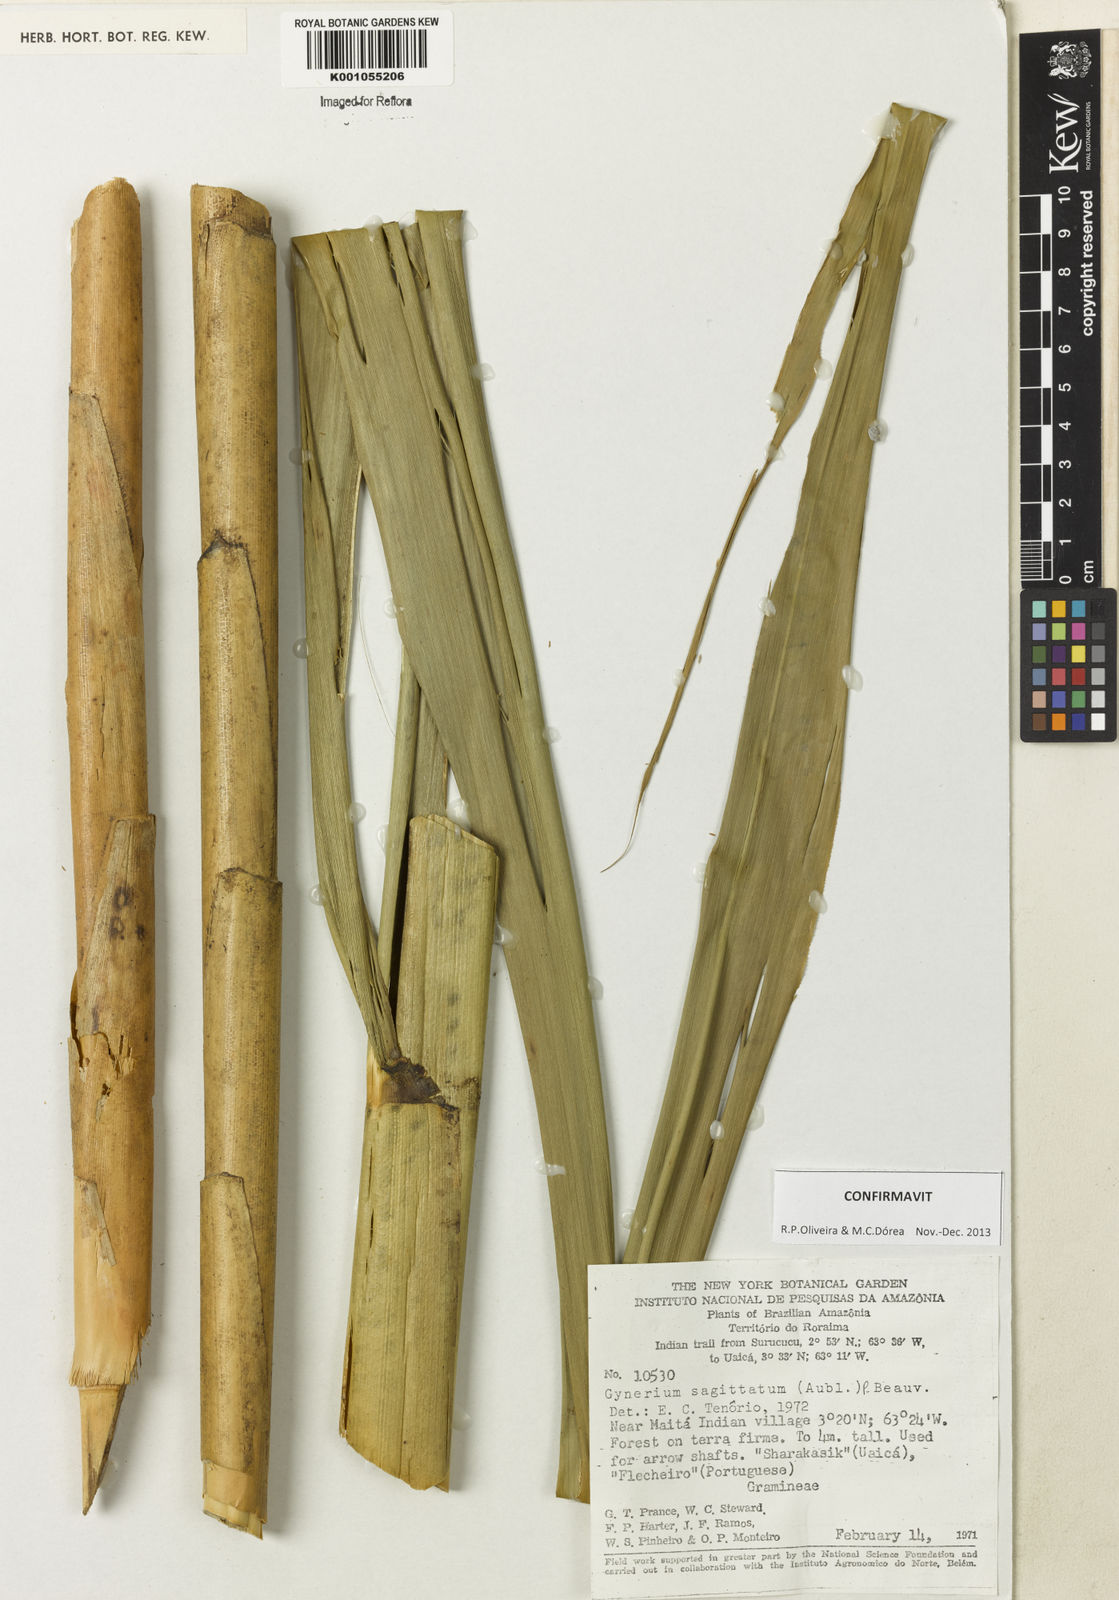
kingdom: Plantae
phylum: Tracheophyta
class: Liliopsida
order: Poales
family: Poaceae
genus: Gynerium
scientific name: Gynerium sagittatum
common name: Wild cane
